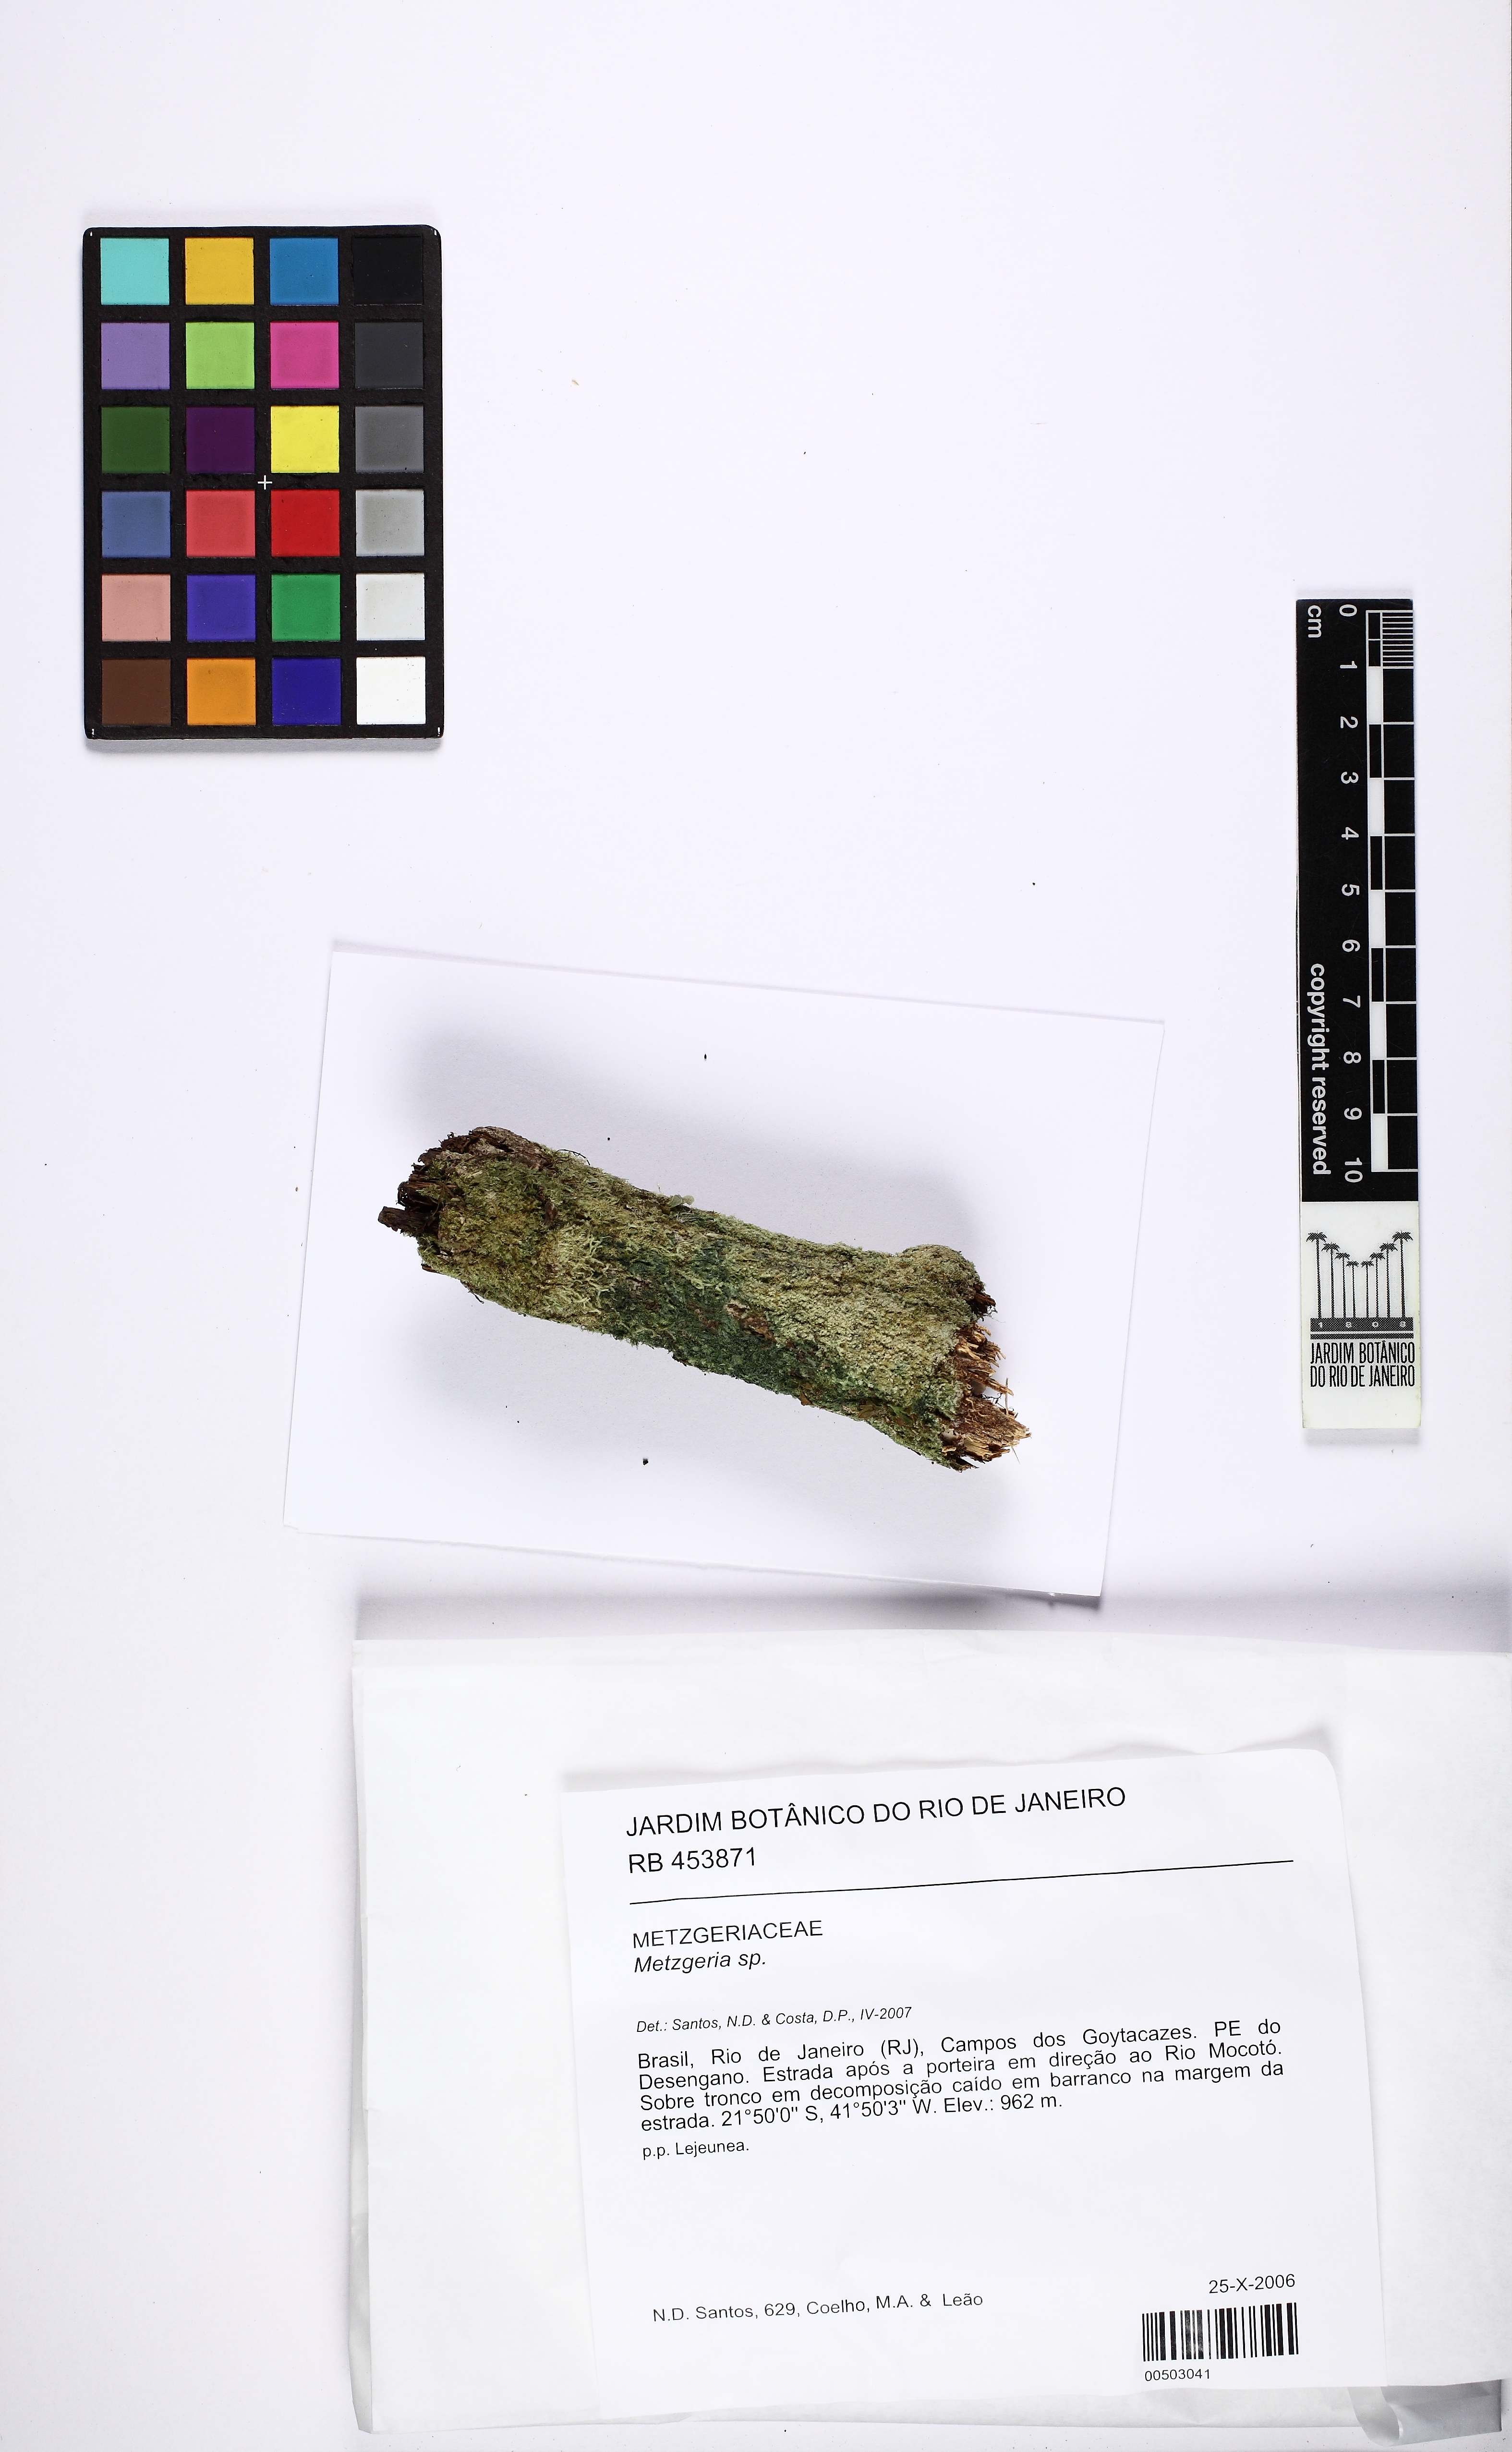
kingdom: Plantae
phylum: Marchantiophyta
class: Jungermanniopsida
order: Metzgeriales
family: Metzgeriaceae
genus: Metzgeria
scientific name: Metzgeria
